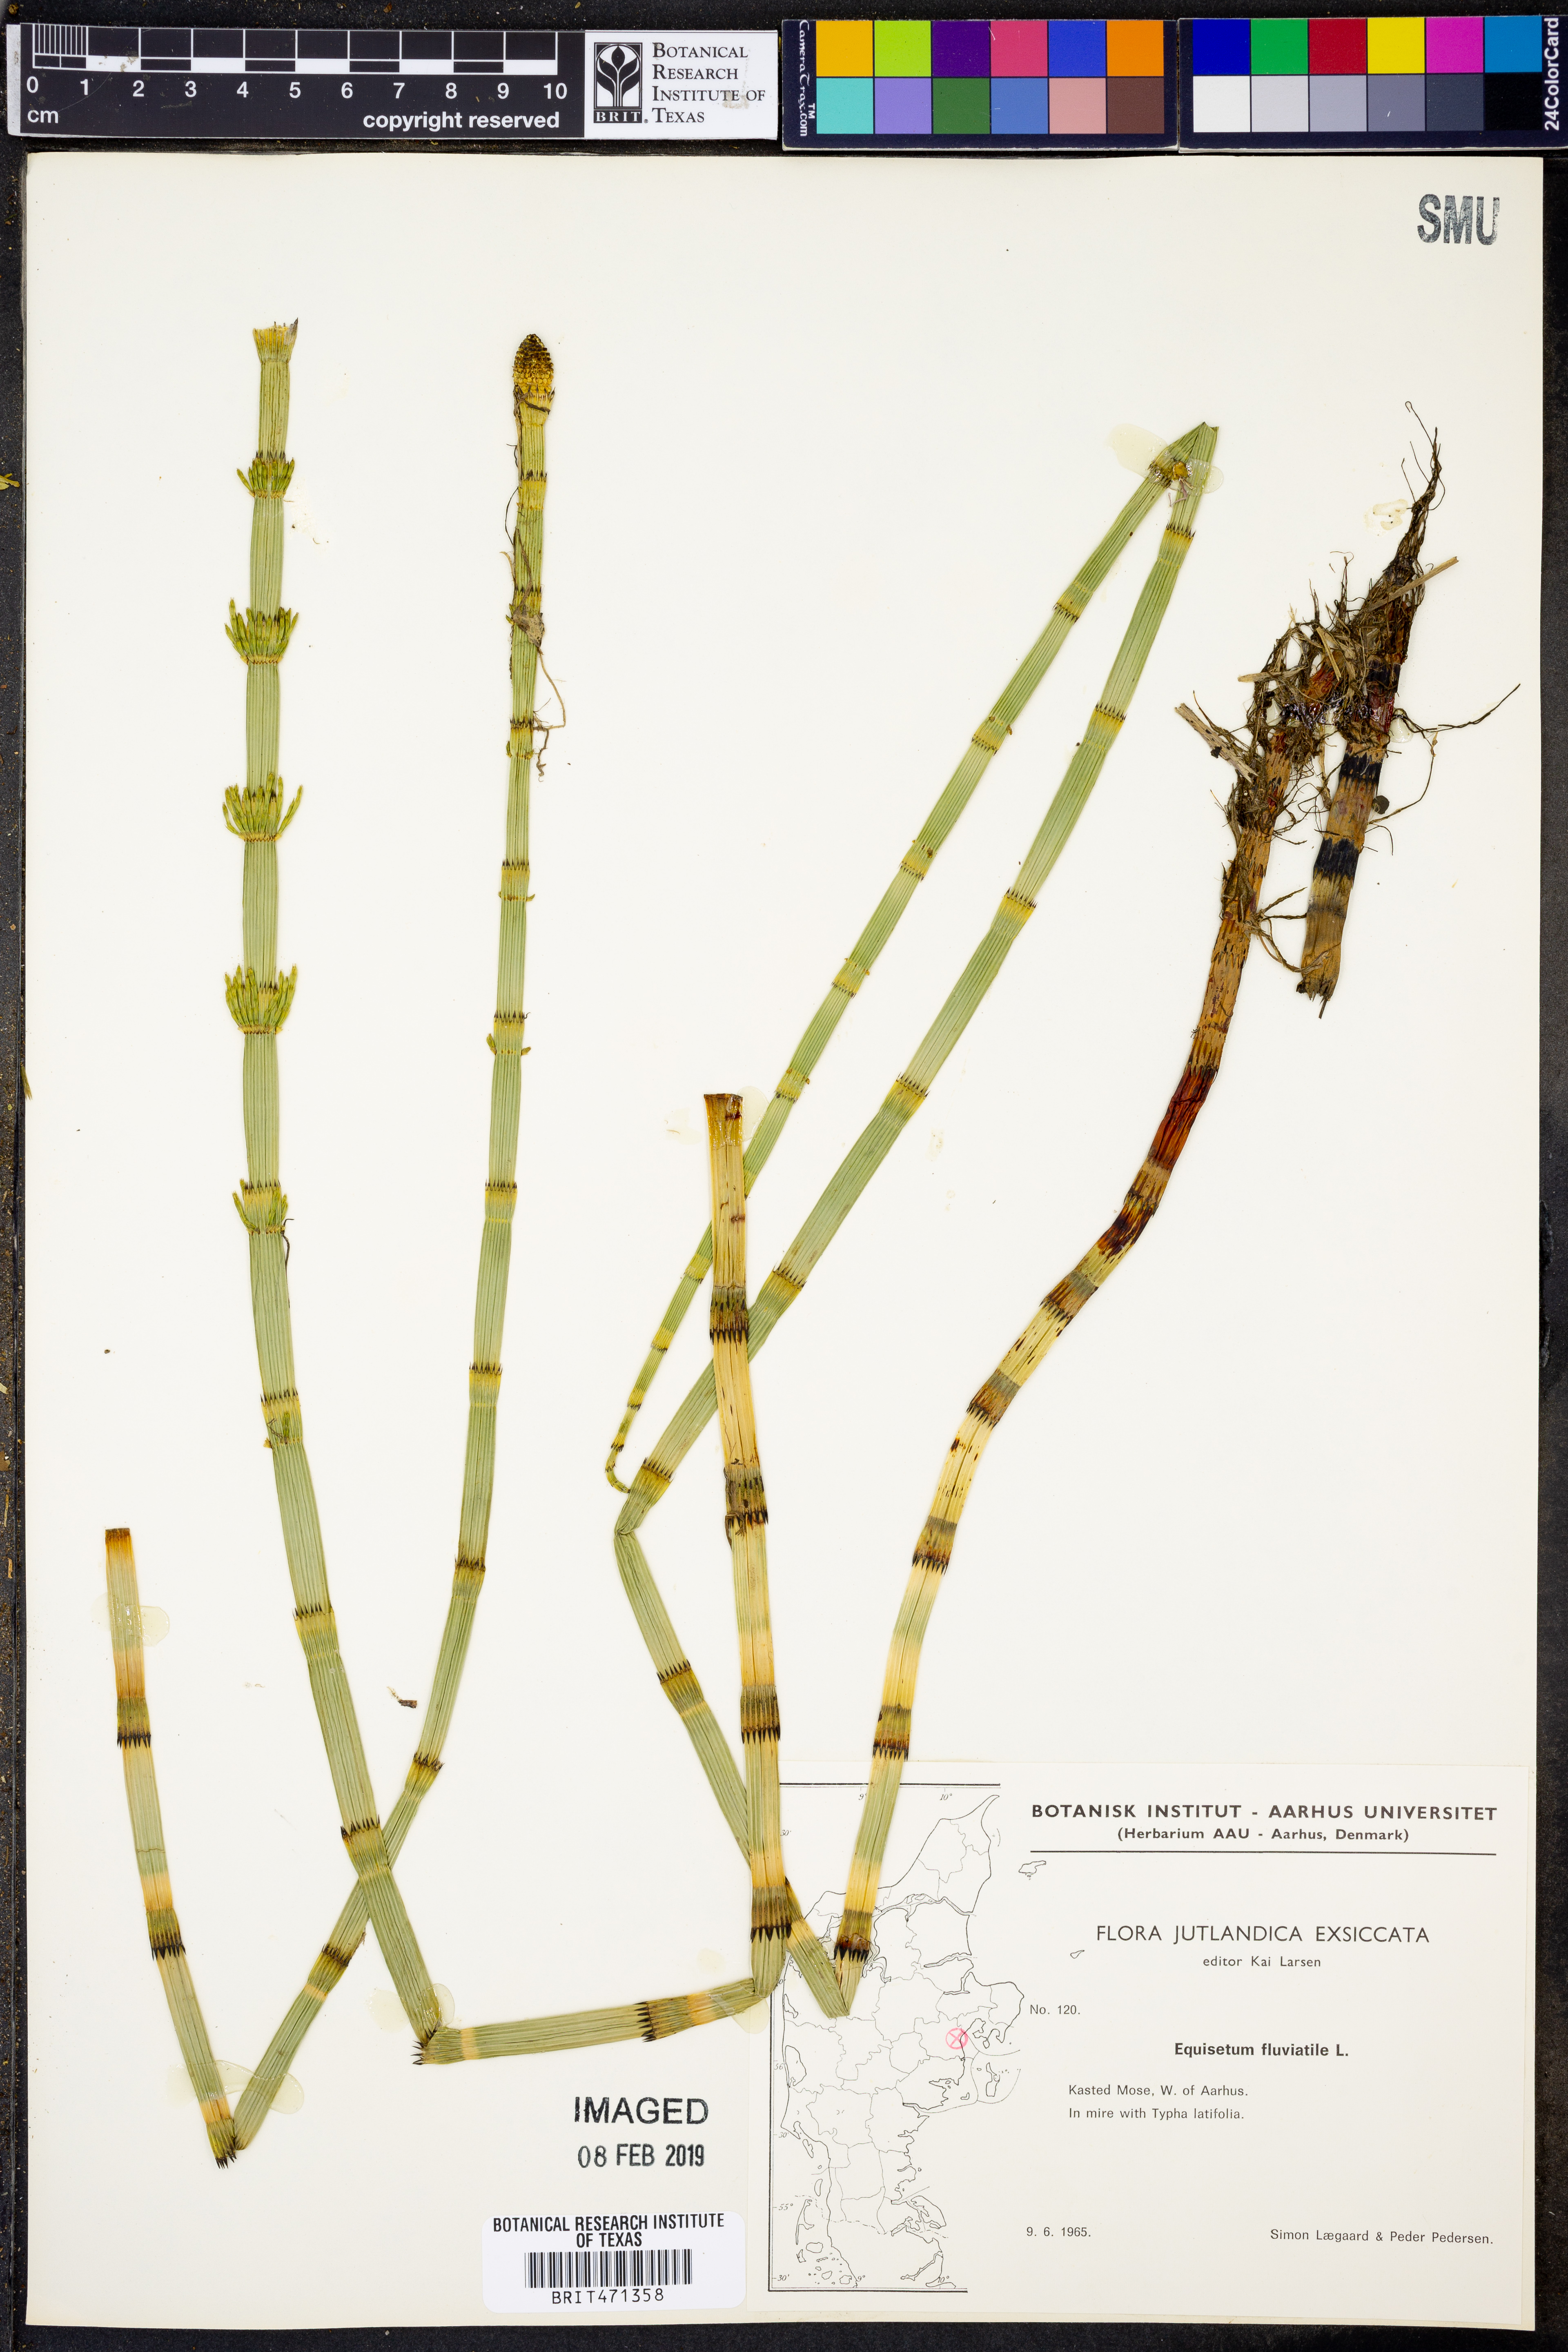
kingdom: Plantae
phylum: Tracheophyta
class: Polypodiopsida
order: Equisetales
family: Equisetaceae
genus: Equisetum
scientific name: Equisetum fluviatile
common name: Water horsetail
